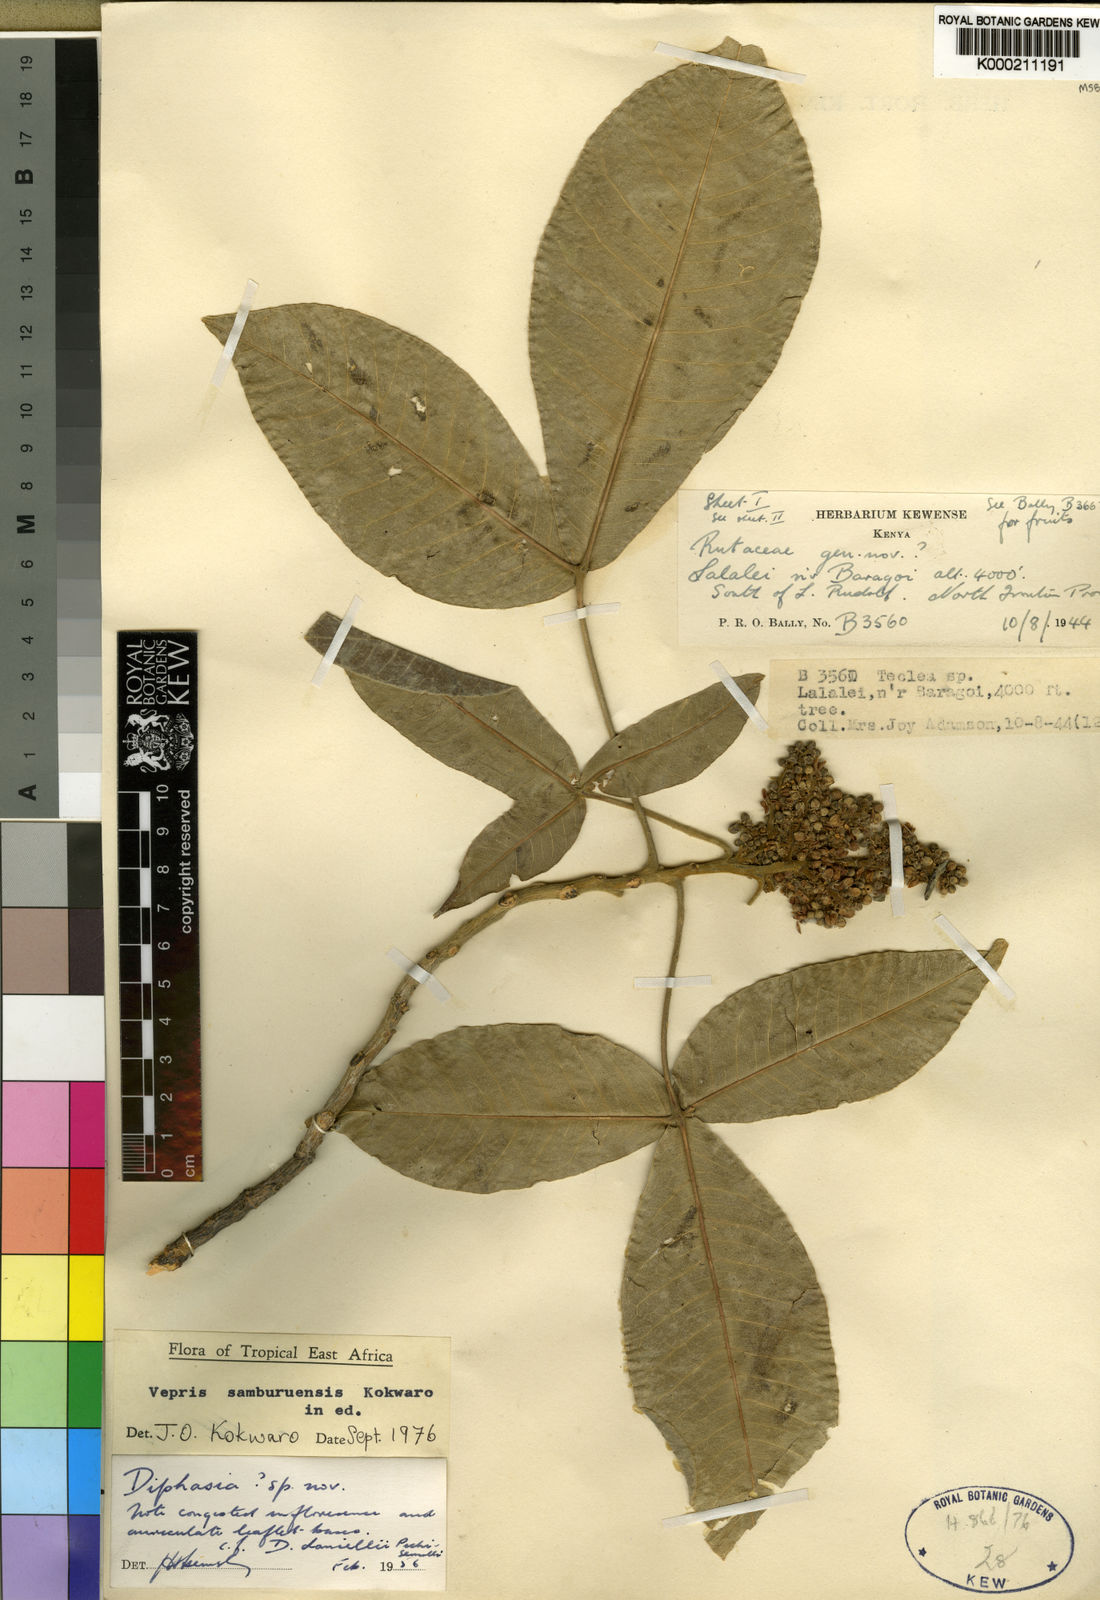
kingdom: Plantae
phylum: Tracheophyta
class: Magnoliopsida
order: Sapindales
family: Rutaceae
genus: Vepris
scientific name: Vepris samburuensis
